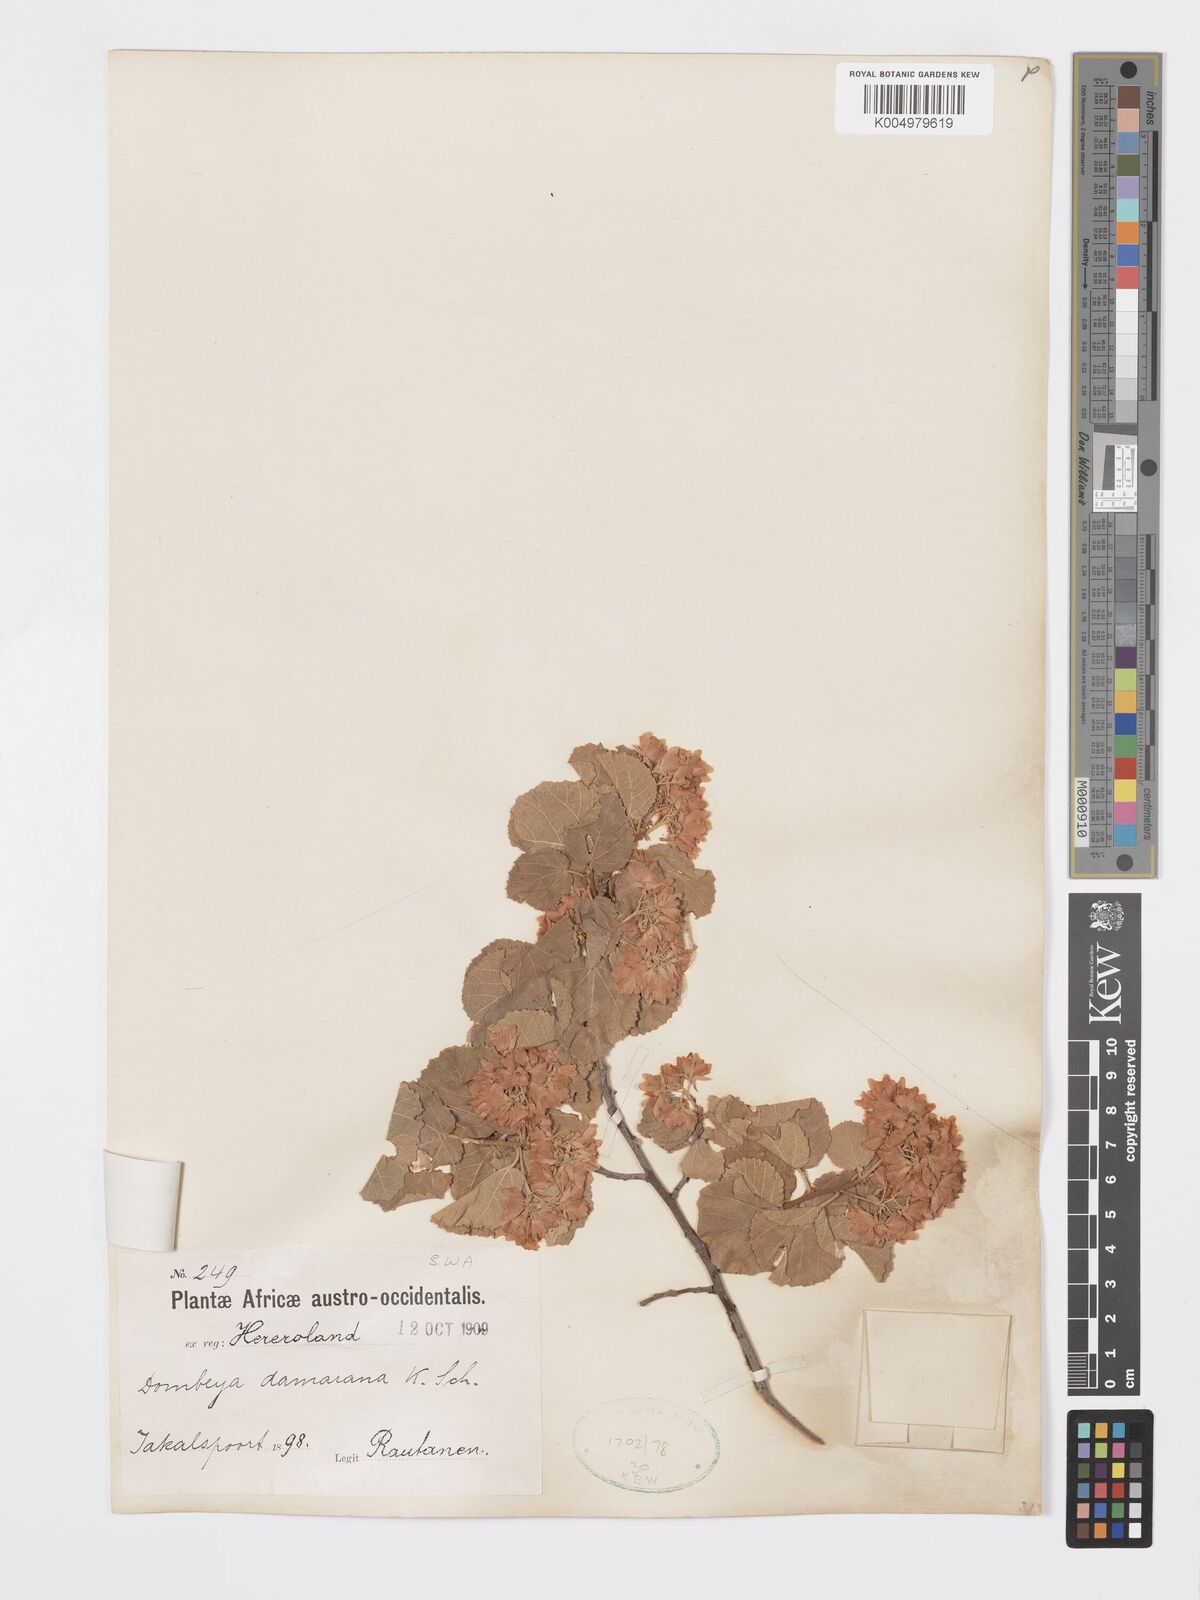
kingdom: Plantae
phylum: Tracheophyta
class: Magnoliopsida
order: Malvales
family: Malvaceae
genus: Dombeya
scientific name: Dombeya rotundifolia
